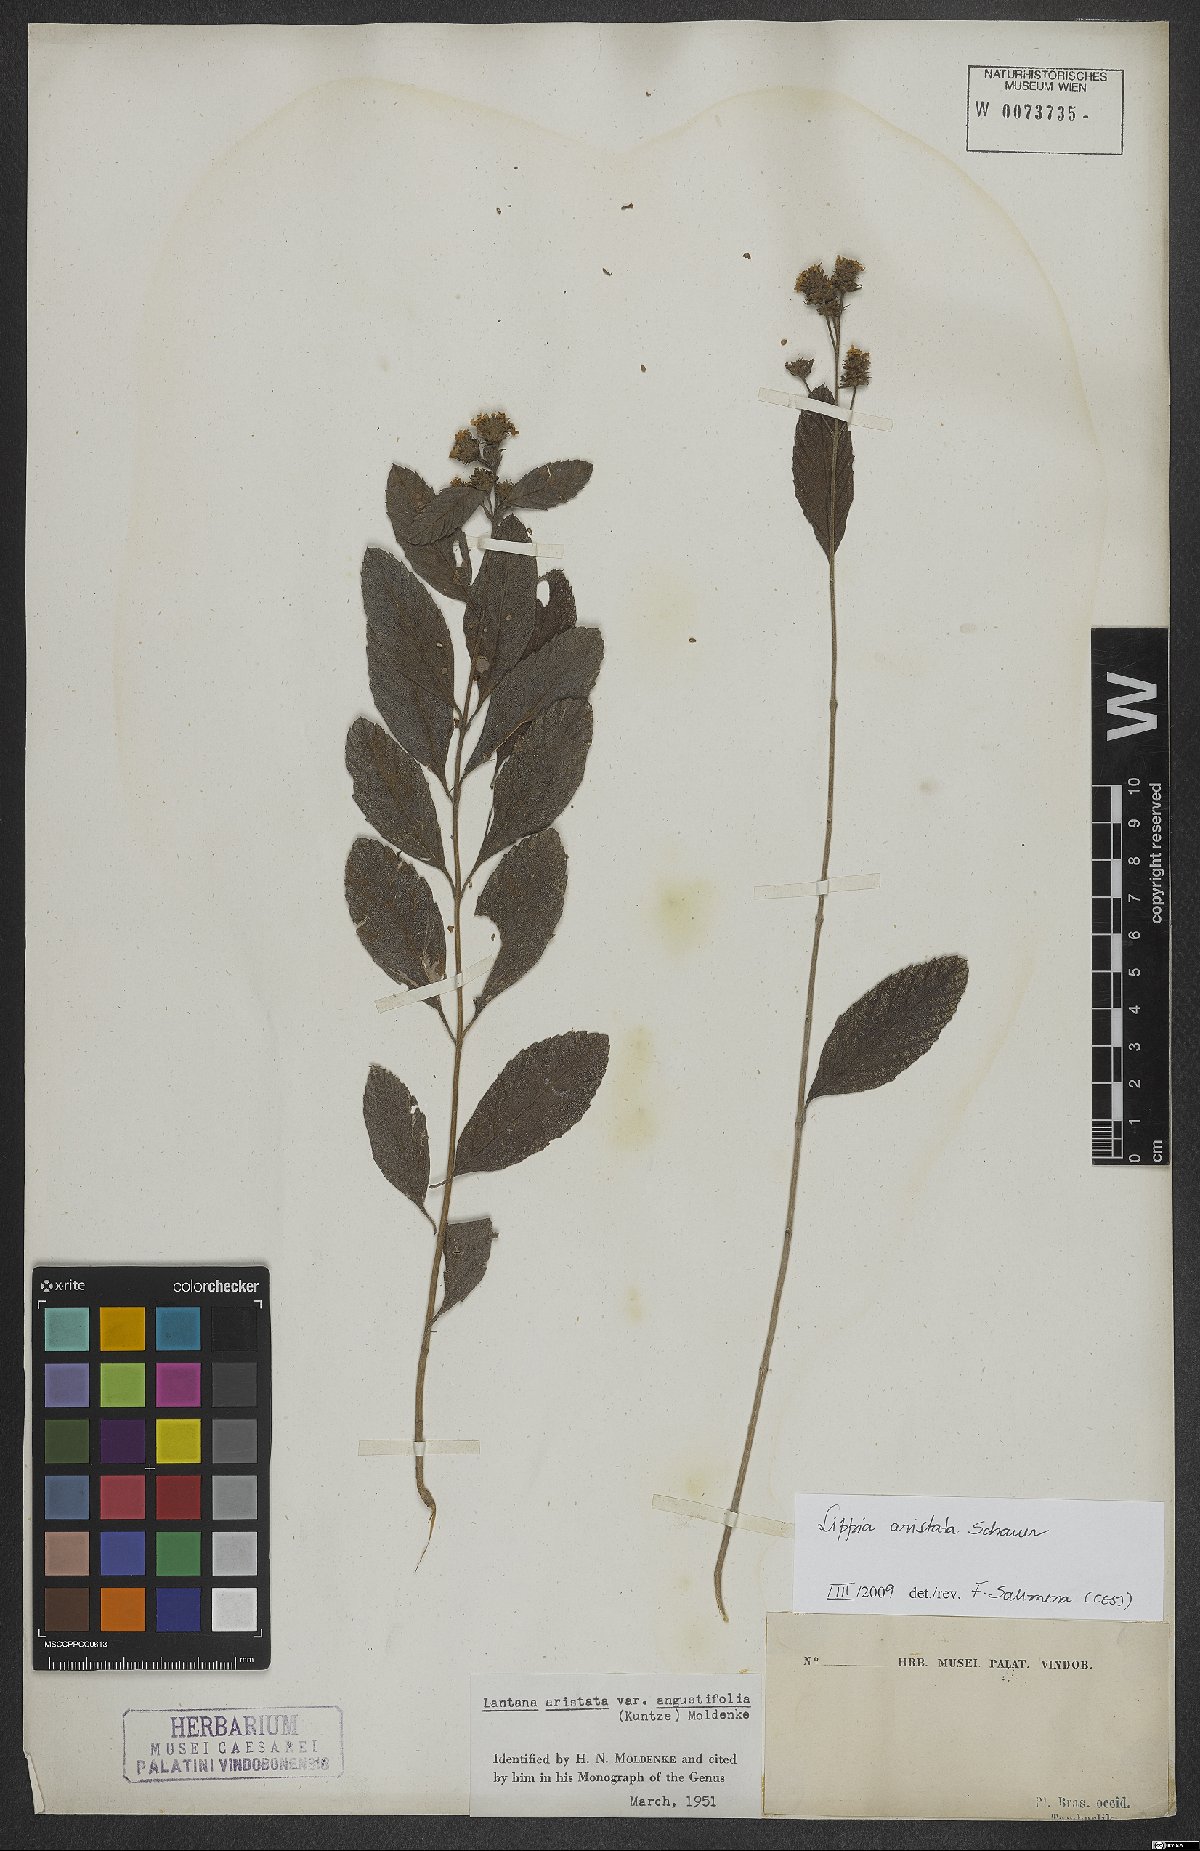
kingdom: Plantae
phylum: Tracheophyta
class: Magnoliopsida
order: Lamiales
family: Verbenaceae
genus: Lippia
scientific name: Lippia aristata
